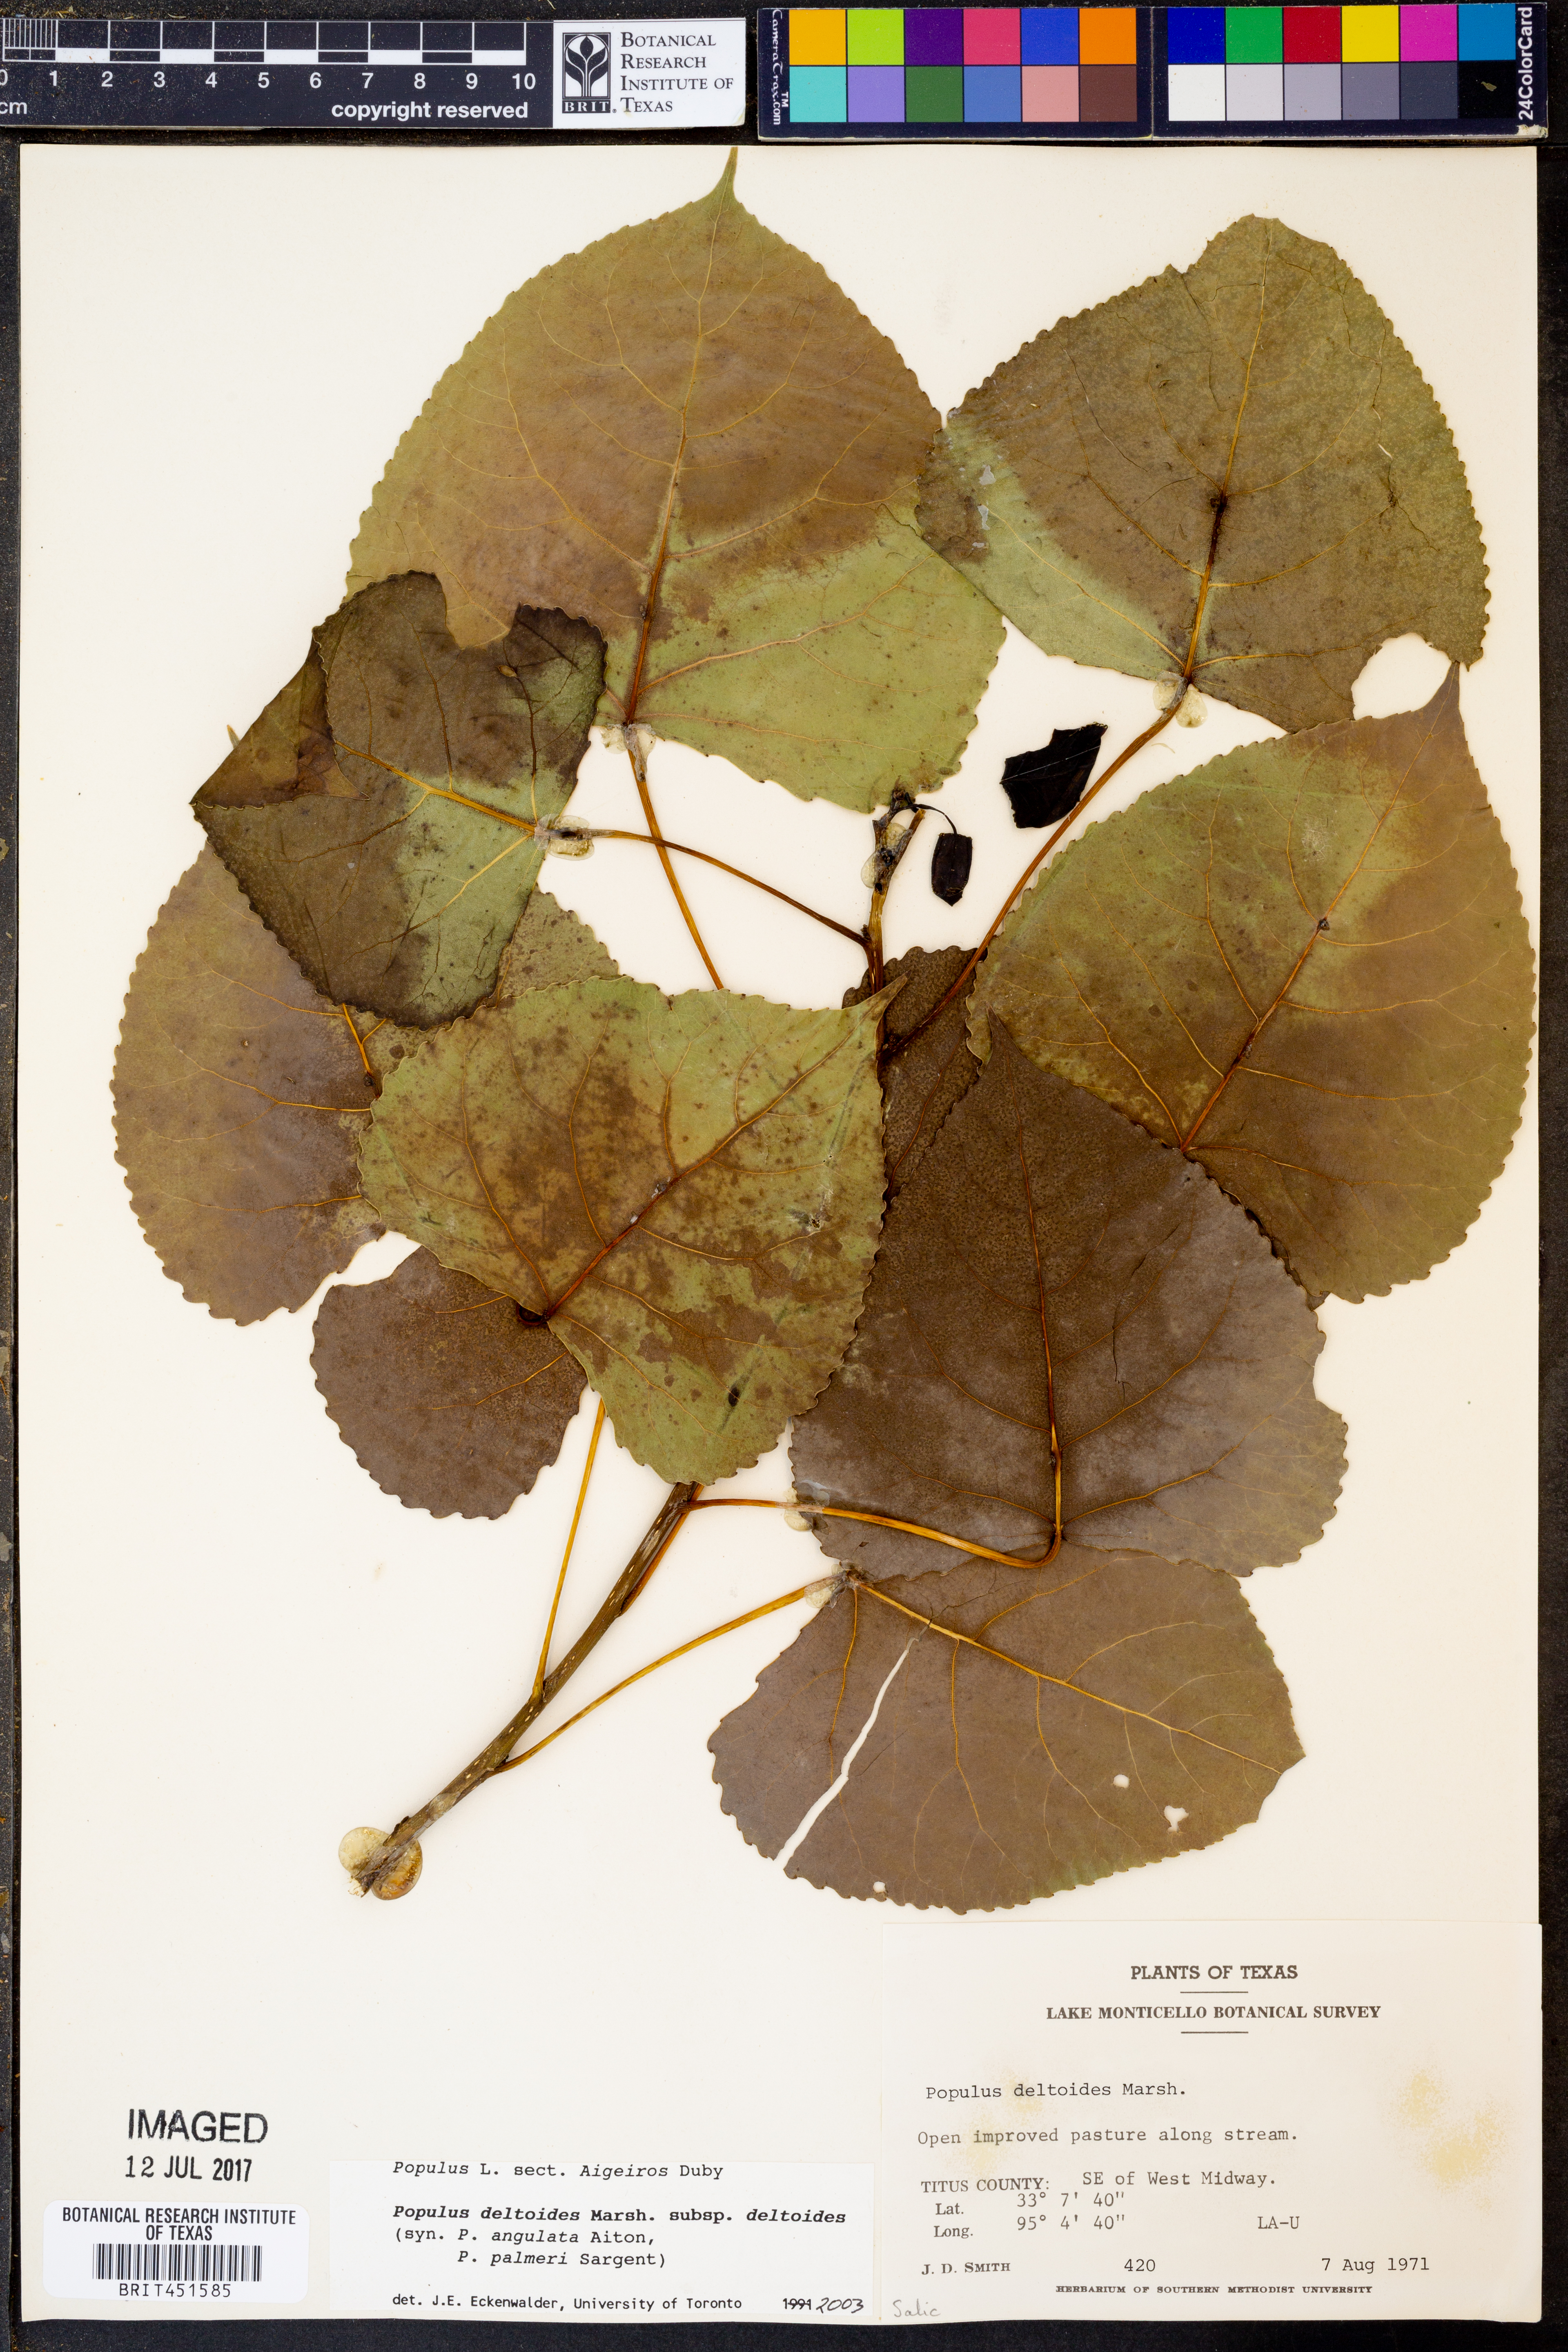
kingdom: Plantae
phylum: Tracheophyta
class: Magnoliopsida
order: Malpighiales
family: Salicaceae
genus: Populus
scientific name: Populus deltoides
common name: Eastern cottonwood
